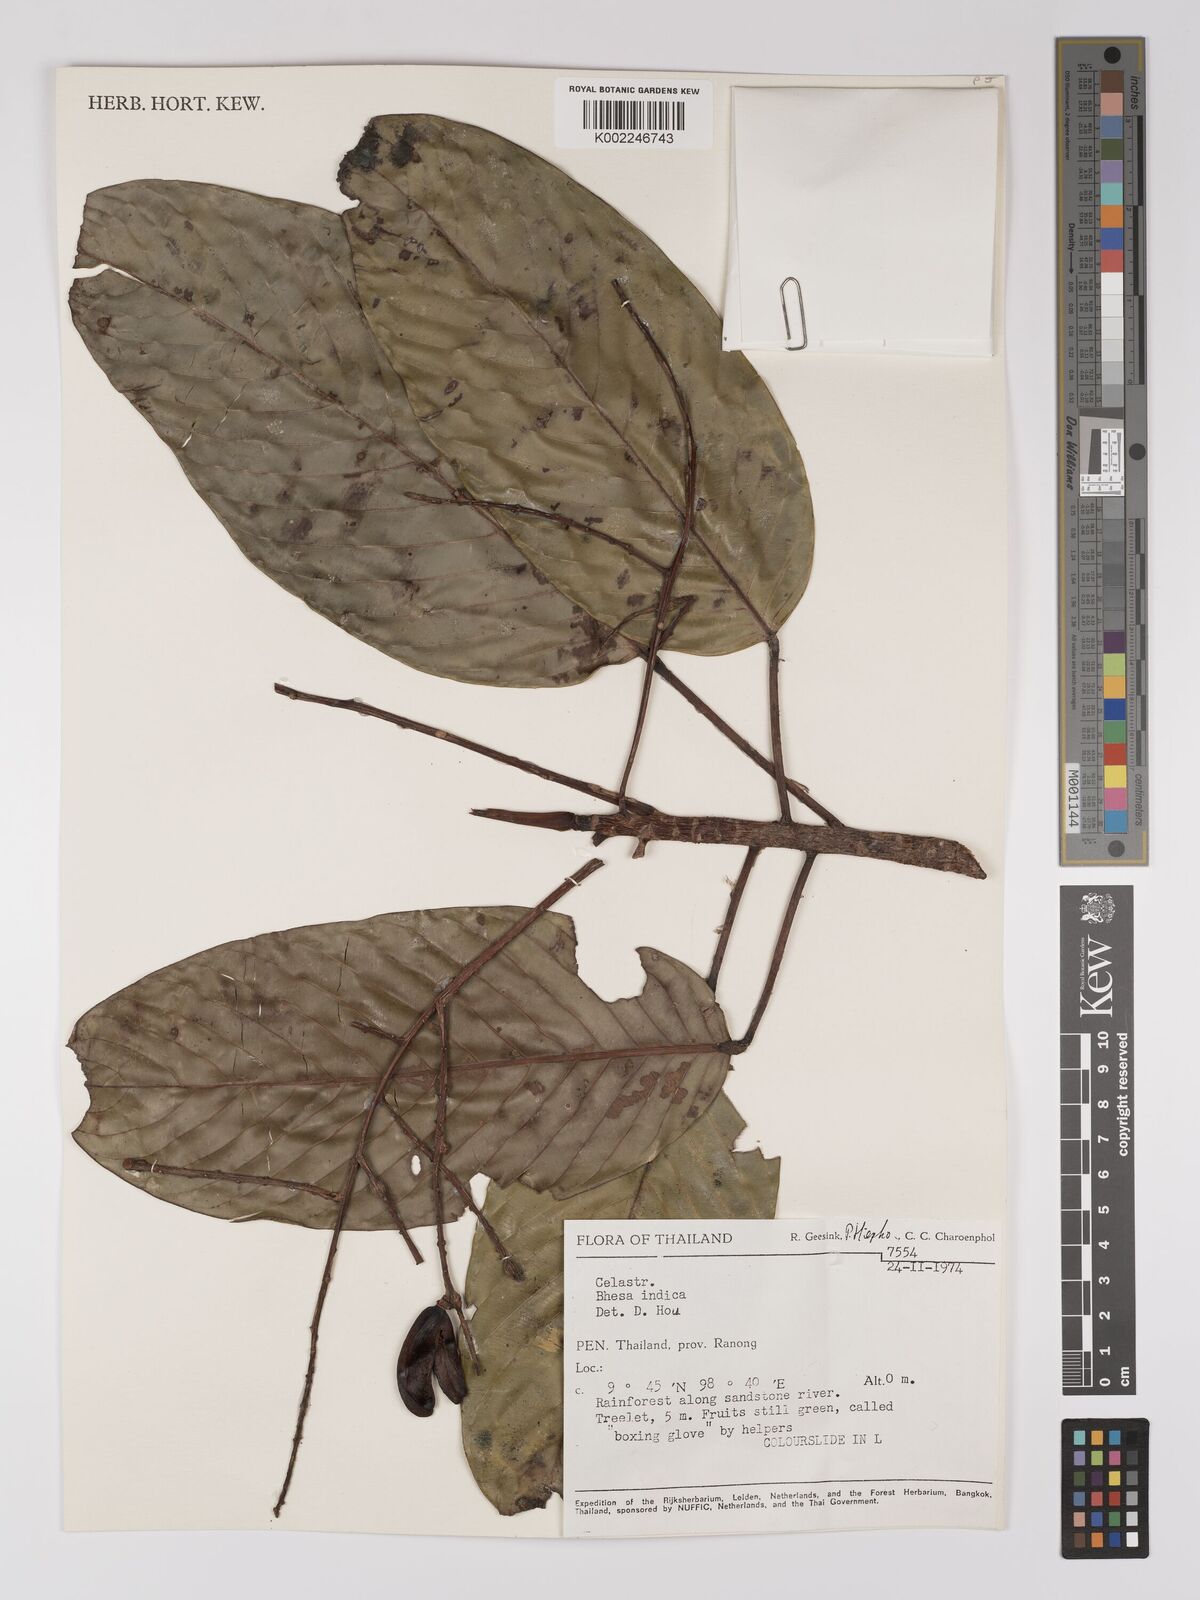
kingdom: Plantae
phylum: Tracheophyta
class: Magnoliopsida
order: Malpighiales
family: Centroplacaceae
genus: Bhesa
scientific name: Bhesa indica
